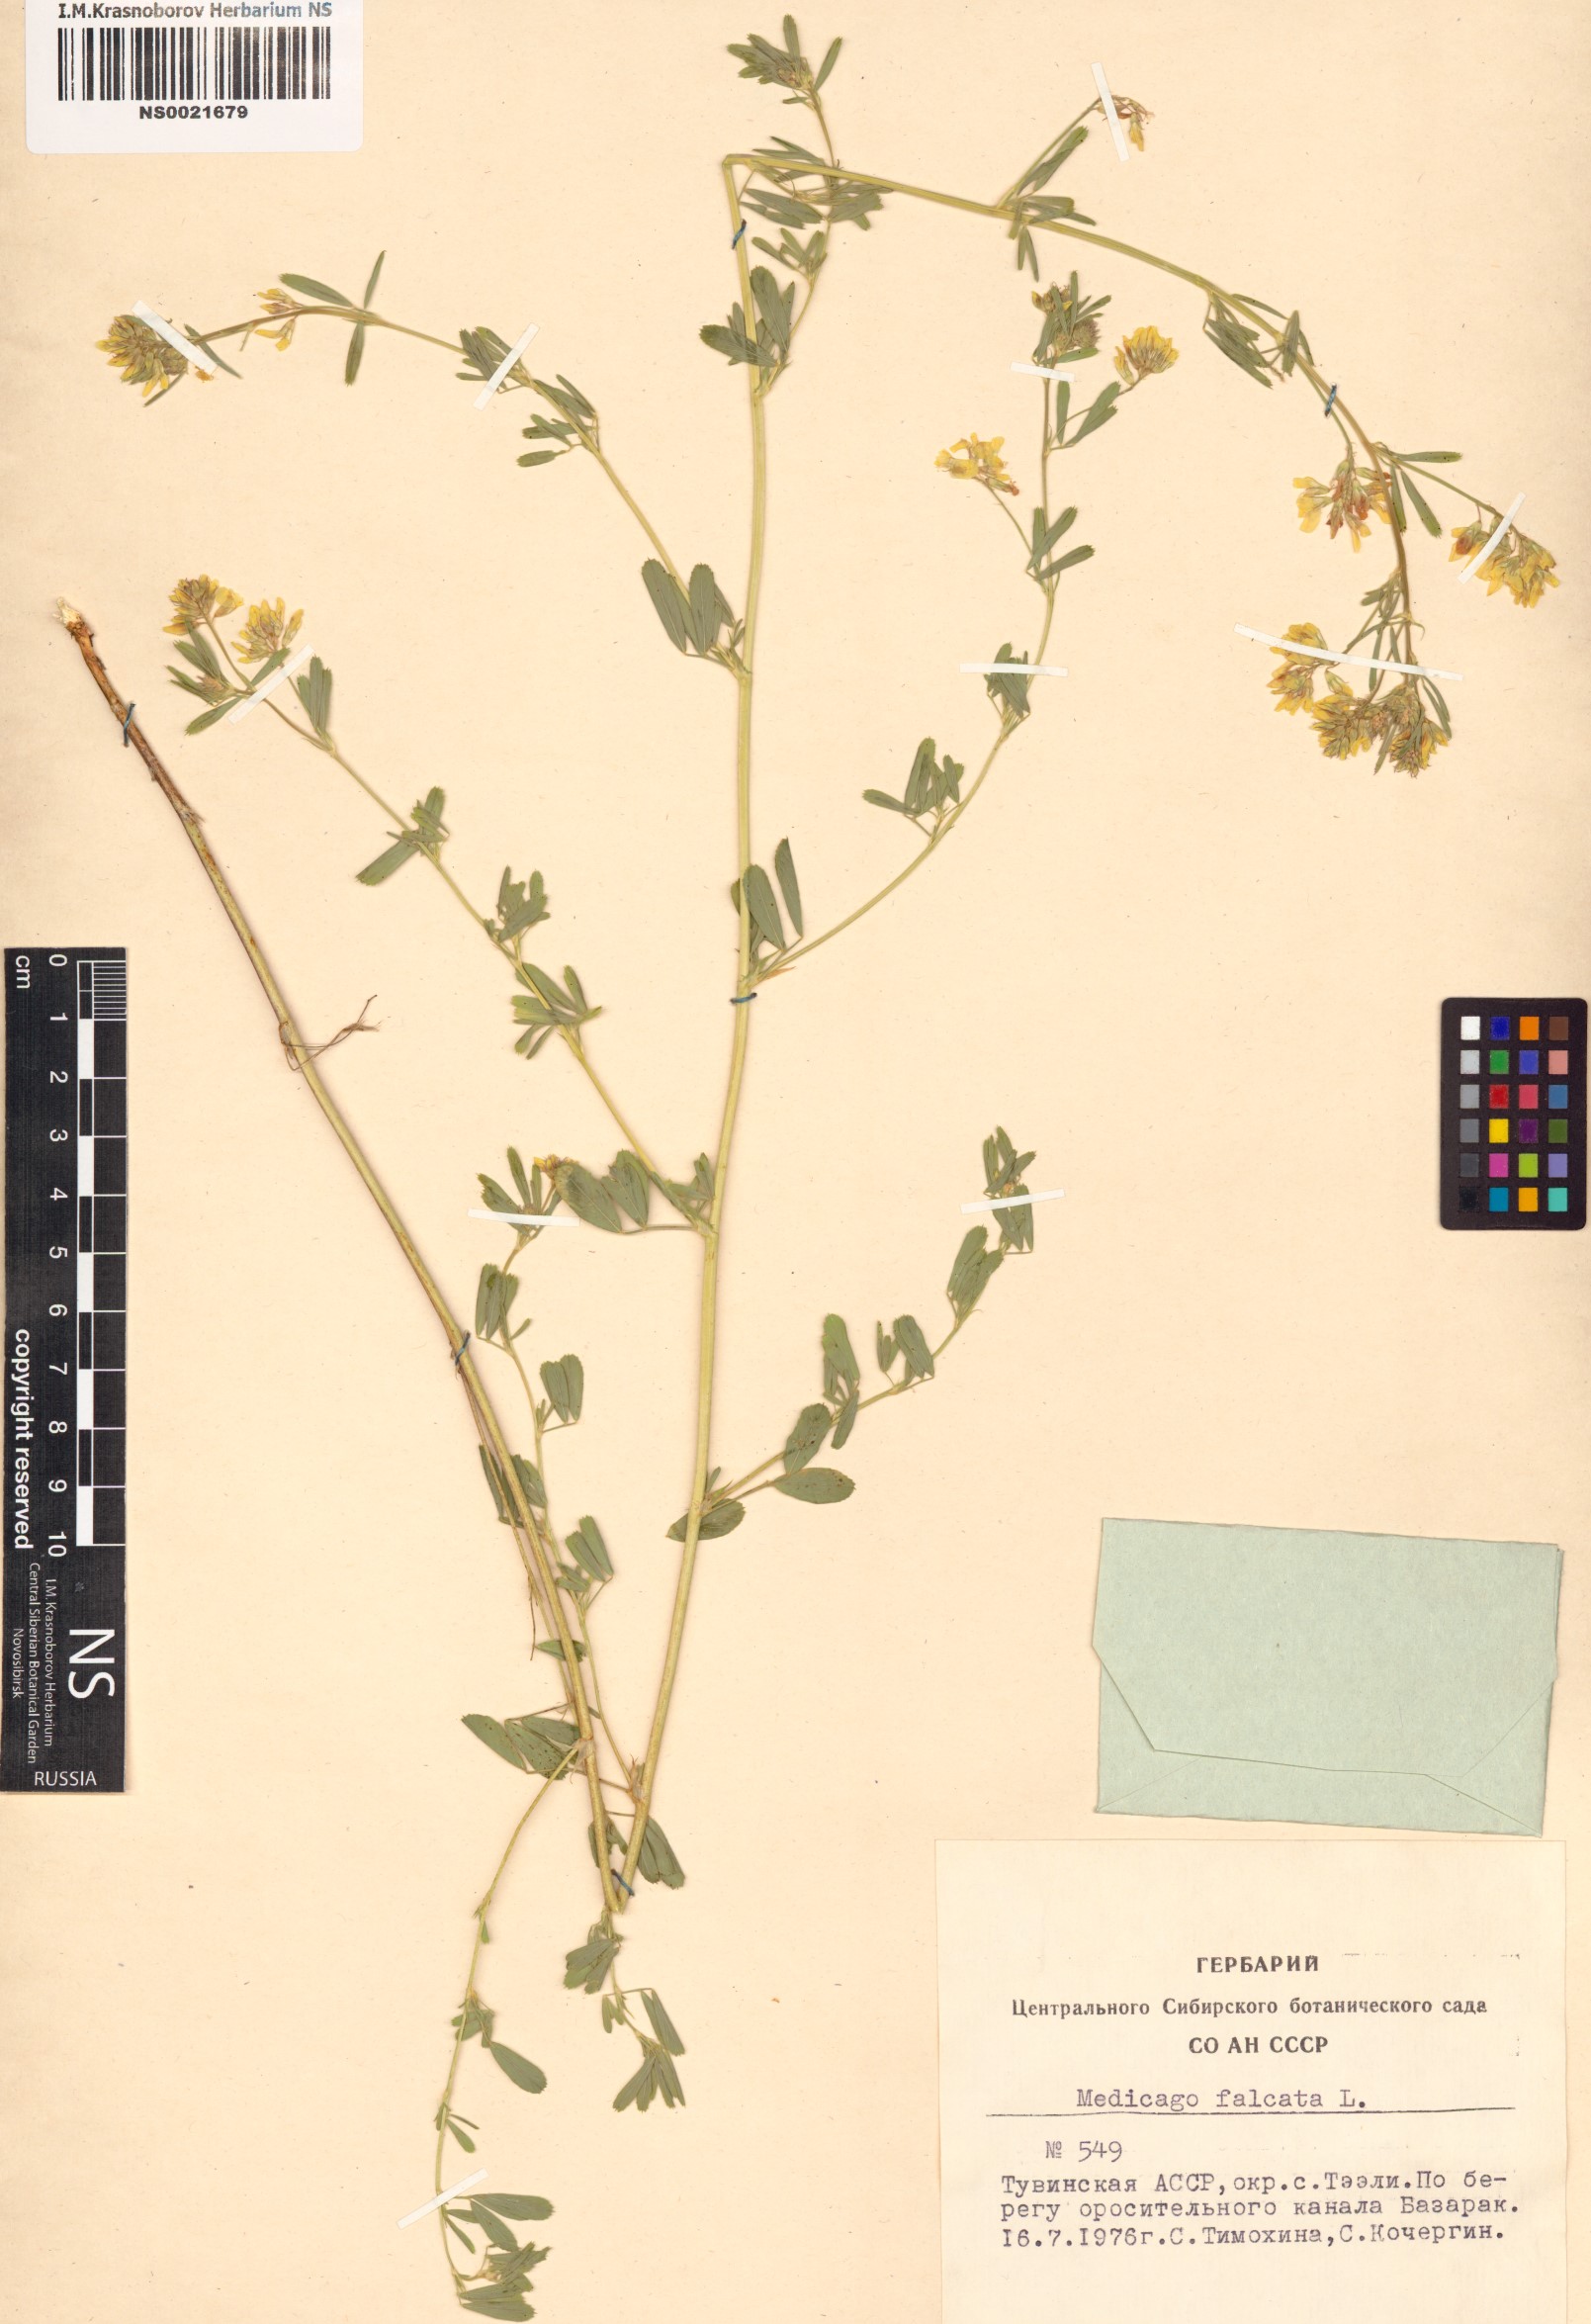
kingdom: Plantae
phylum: Tracheophyta
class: Magnoliopsida
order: Fabales
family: Fabaceae
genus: Medicago
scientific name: Medicago falcata
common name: Sickle medick
